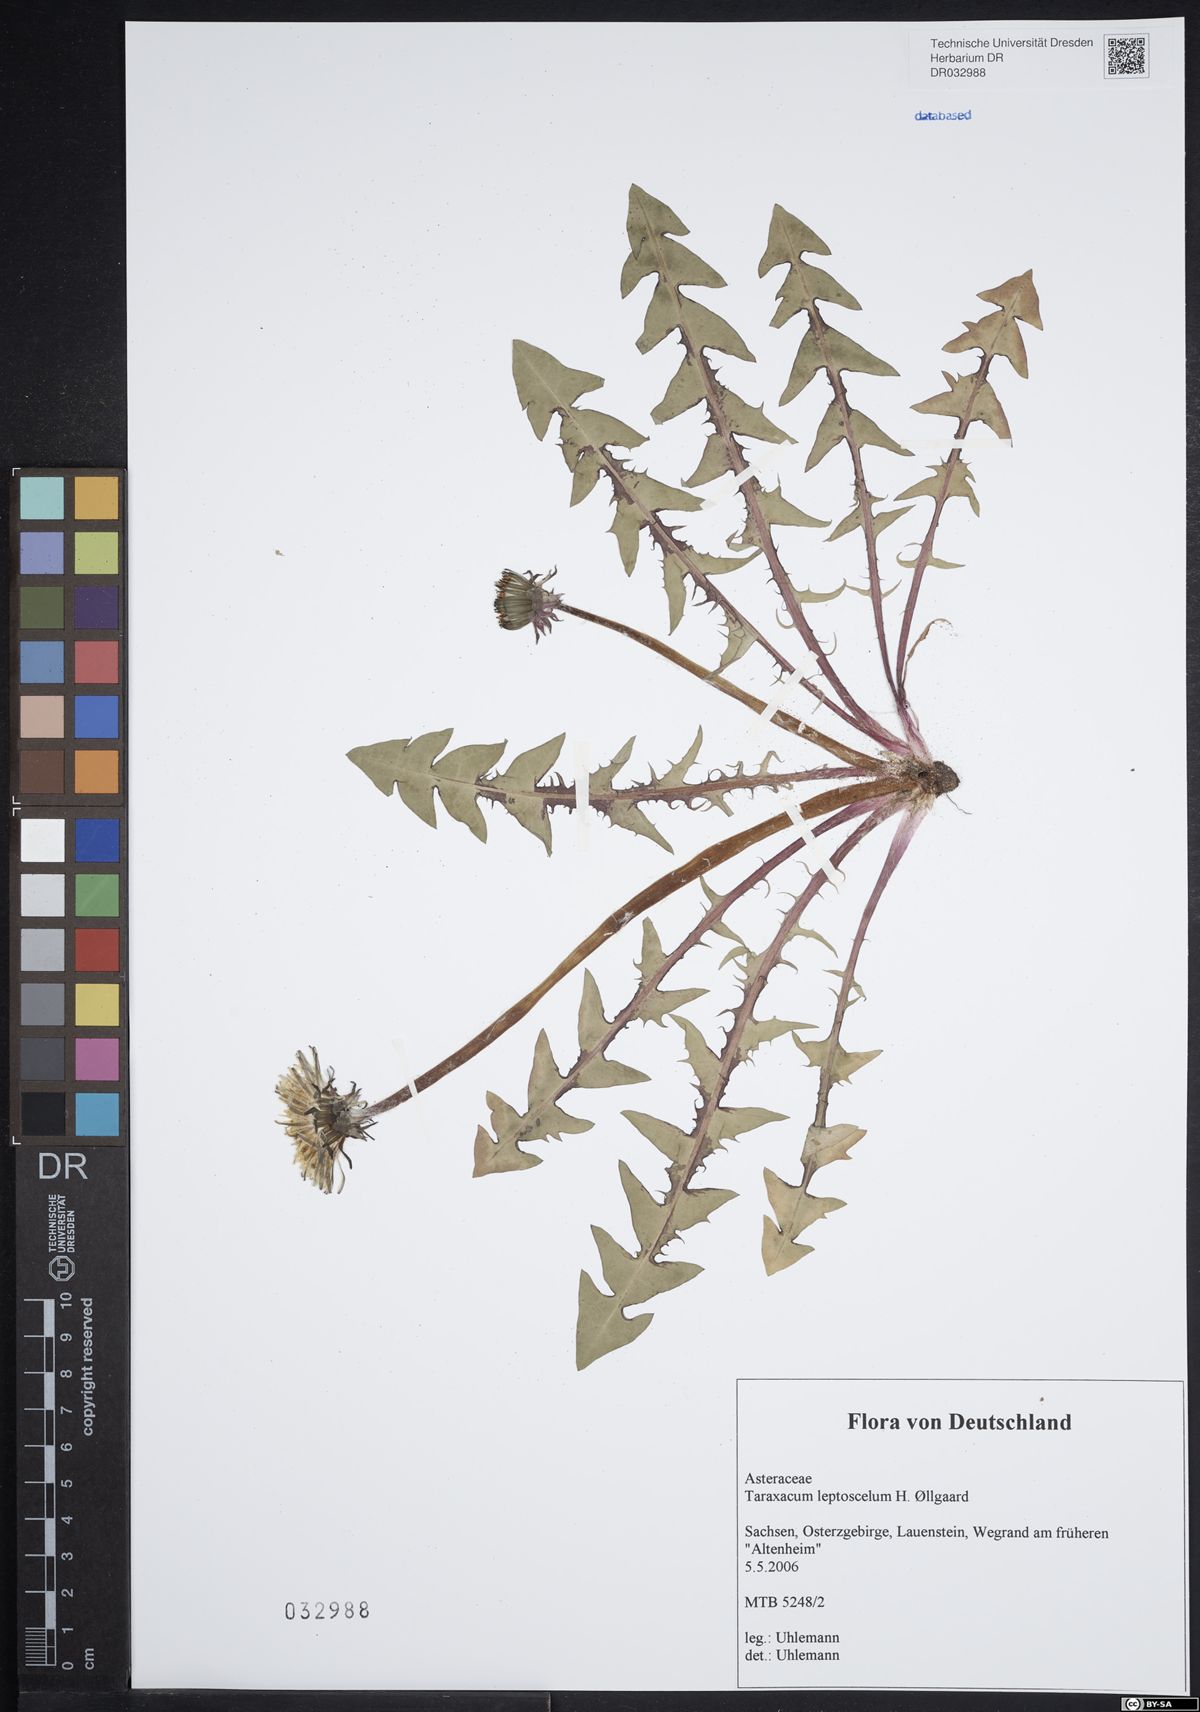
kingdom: Plantae
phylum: Tracheophyta
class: Magnoliopsida
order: Asterales
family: Asteraceae
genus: Taraxacum
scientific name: Taraxacum leptoscelum
